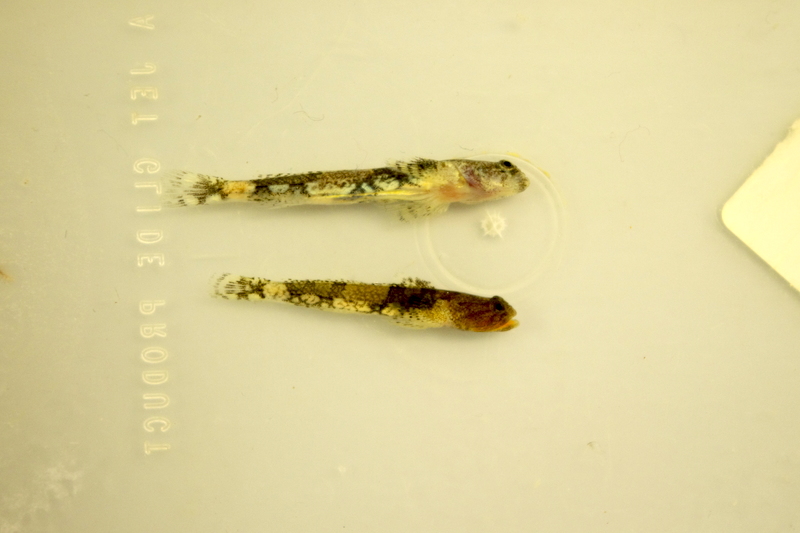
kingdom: Animalia
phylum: Chordata
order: Perciformes
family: Gobiidae
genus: Schismatogobius
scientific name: Schismatogobius roxasi
